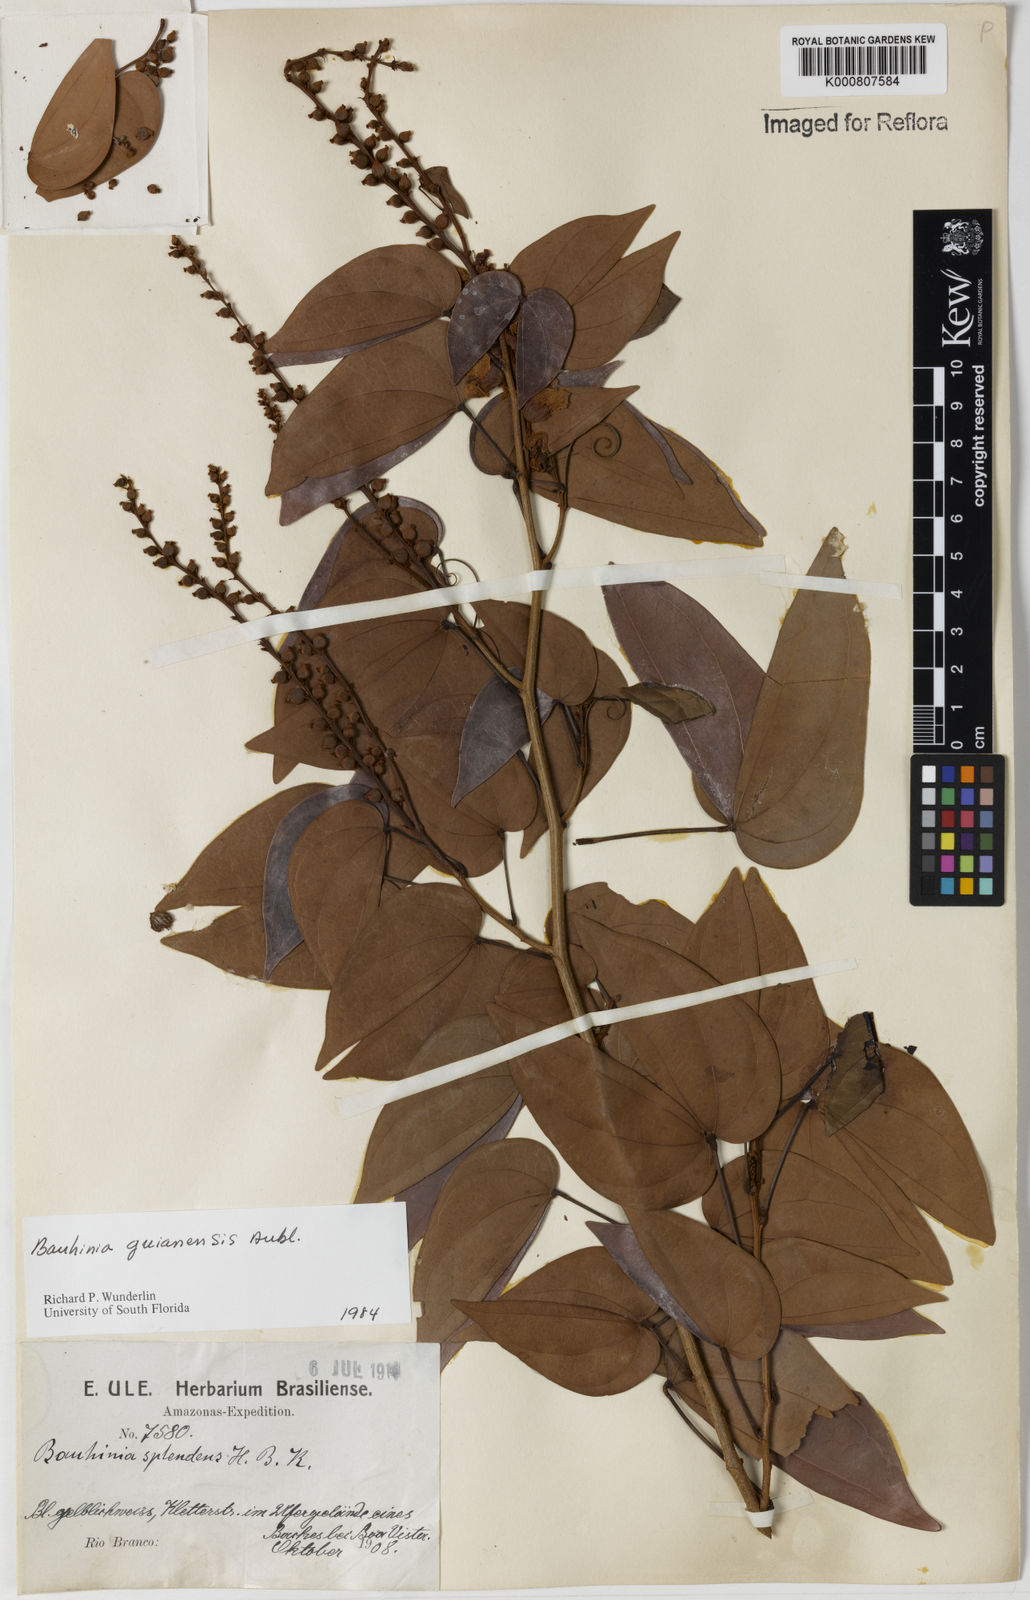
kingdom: Plantae
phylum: Tracheophyta
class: Magnoliopsida
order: Fabales
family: Fabaceae
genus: Schnella
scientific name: Schnella guianensis
